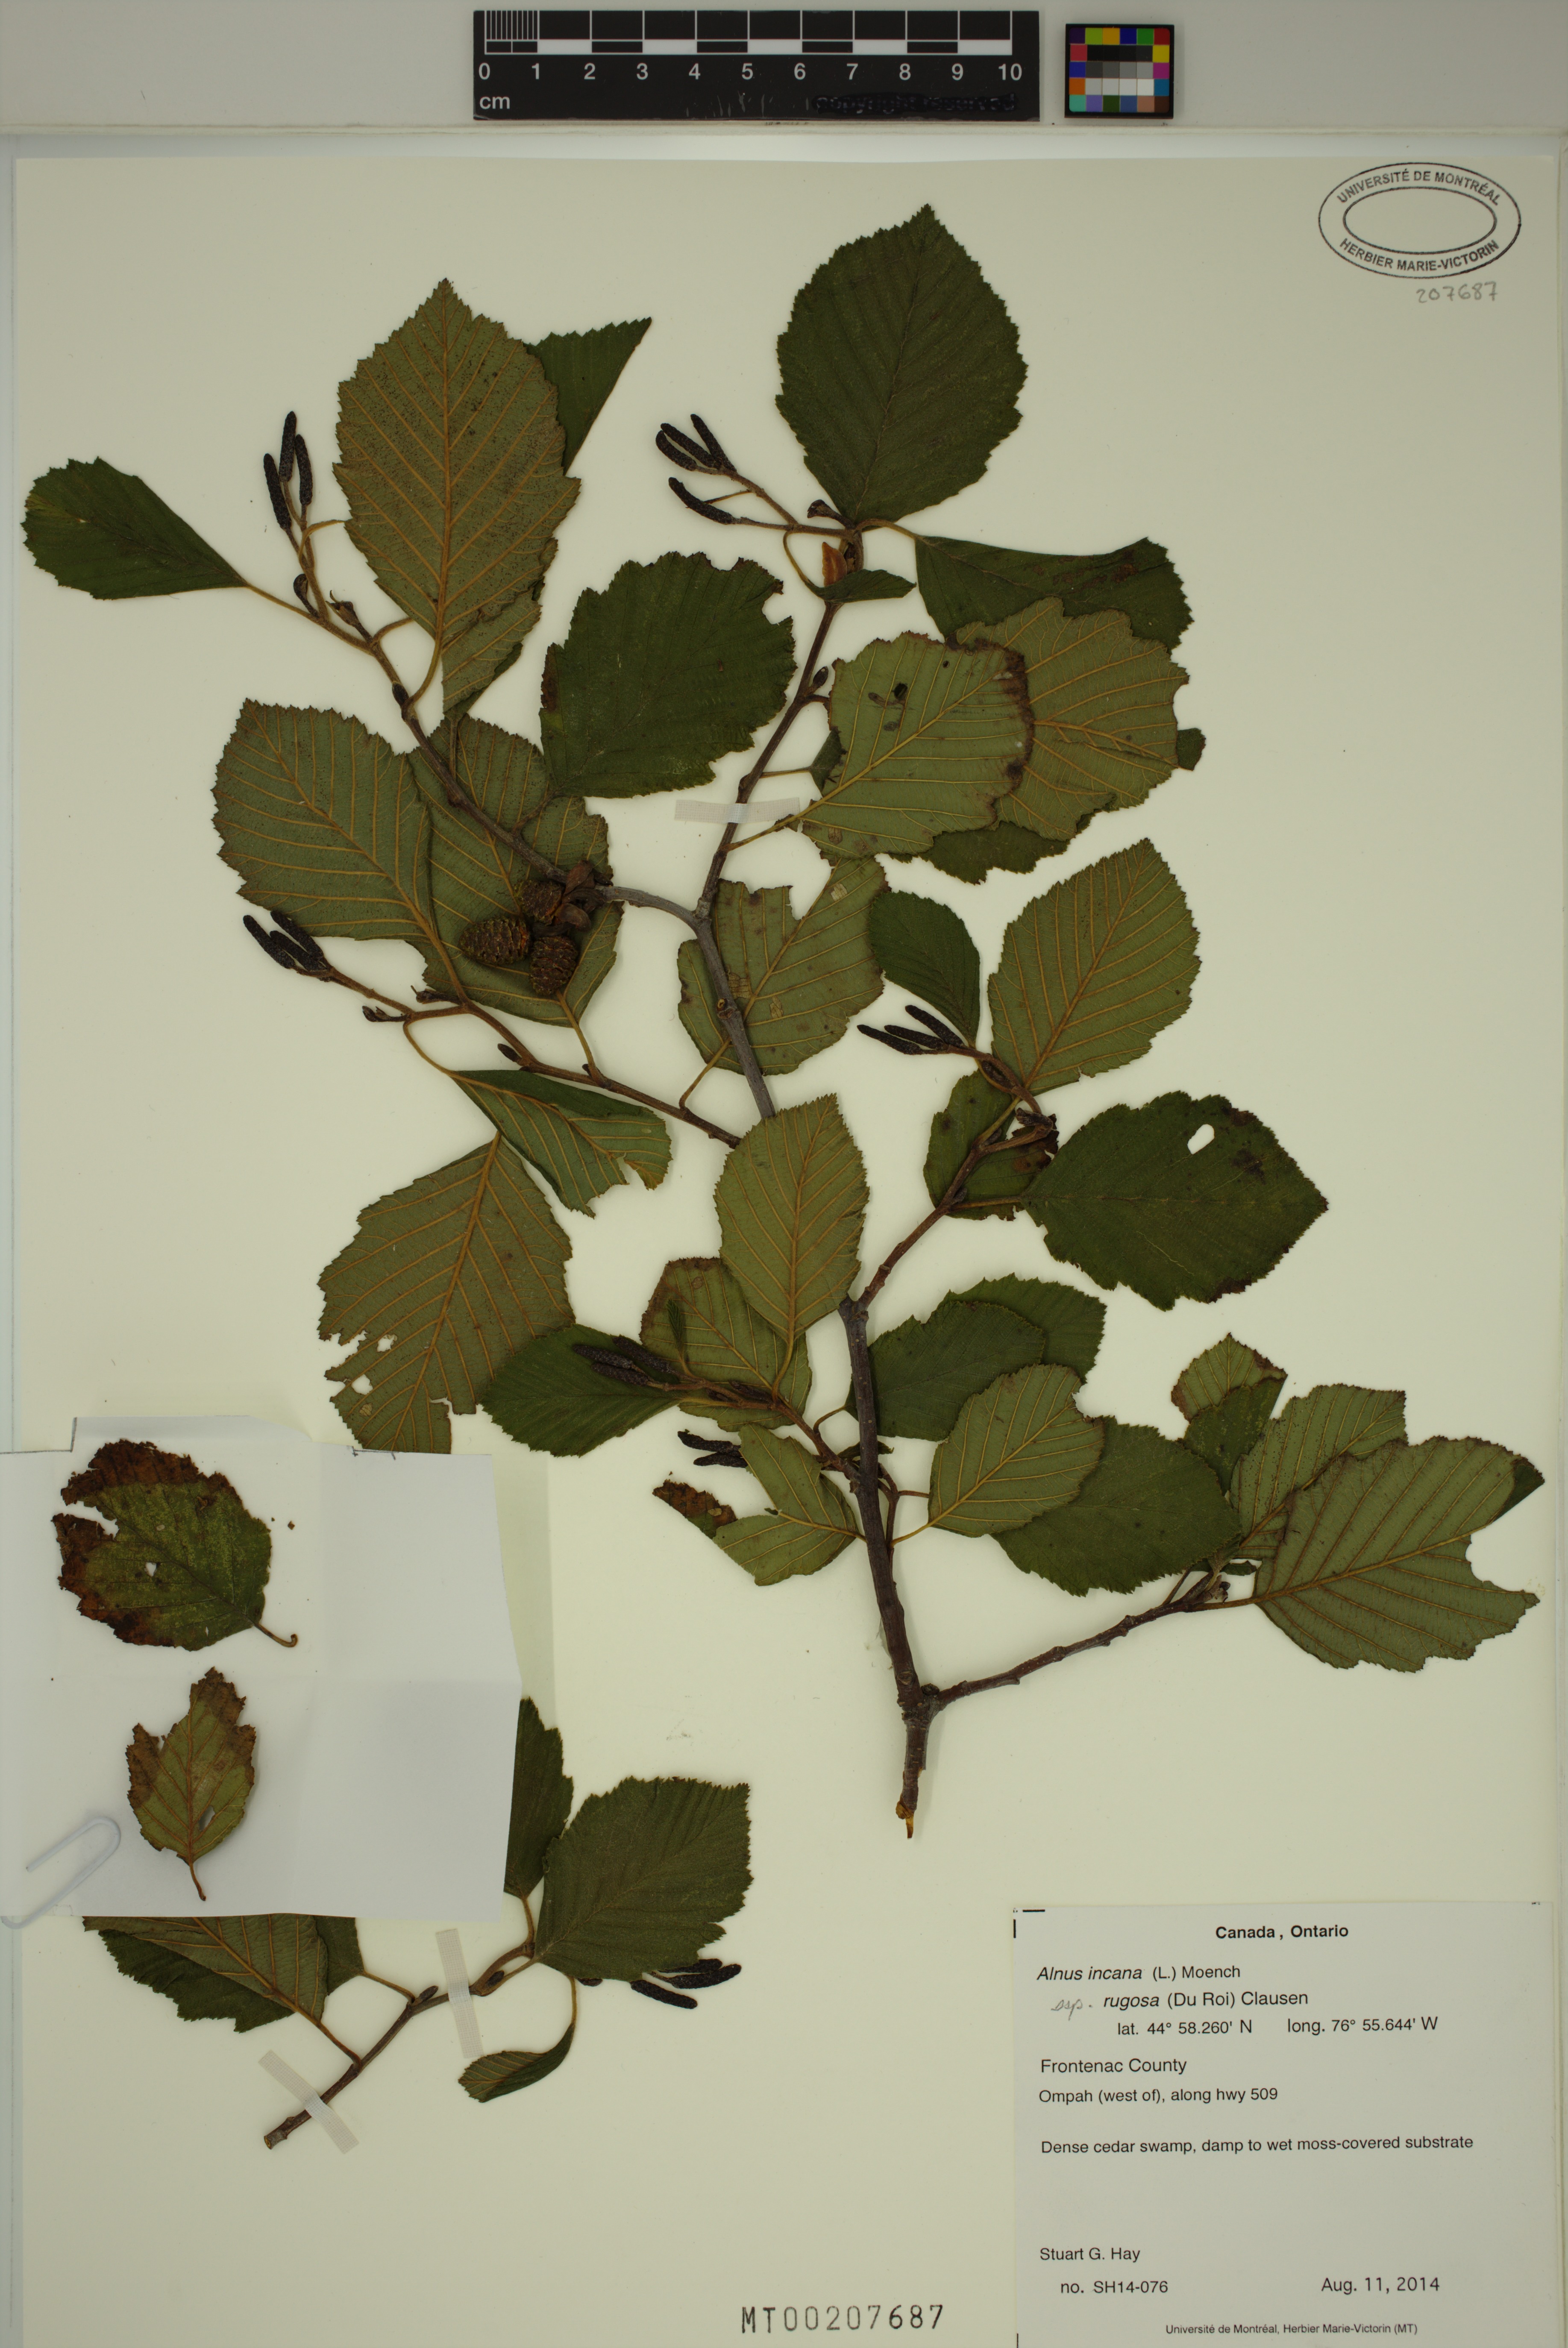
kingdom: Plantae
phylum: Tracheophyta
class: Magnoliopsida
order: Fagales
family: Betulaceae
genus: Alnus
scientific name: Alnus incana
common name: Grey alder
